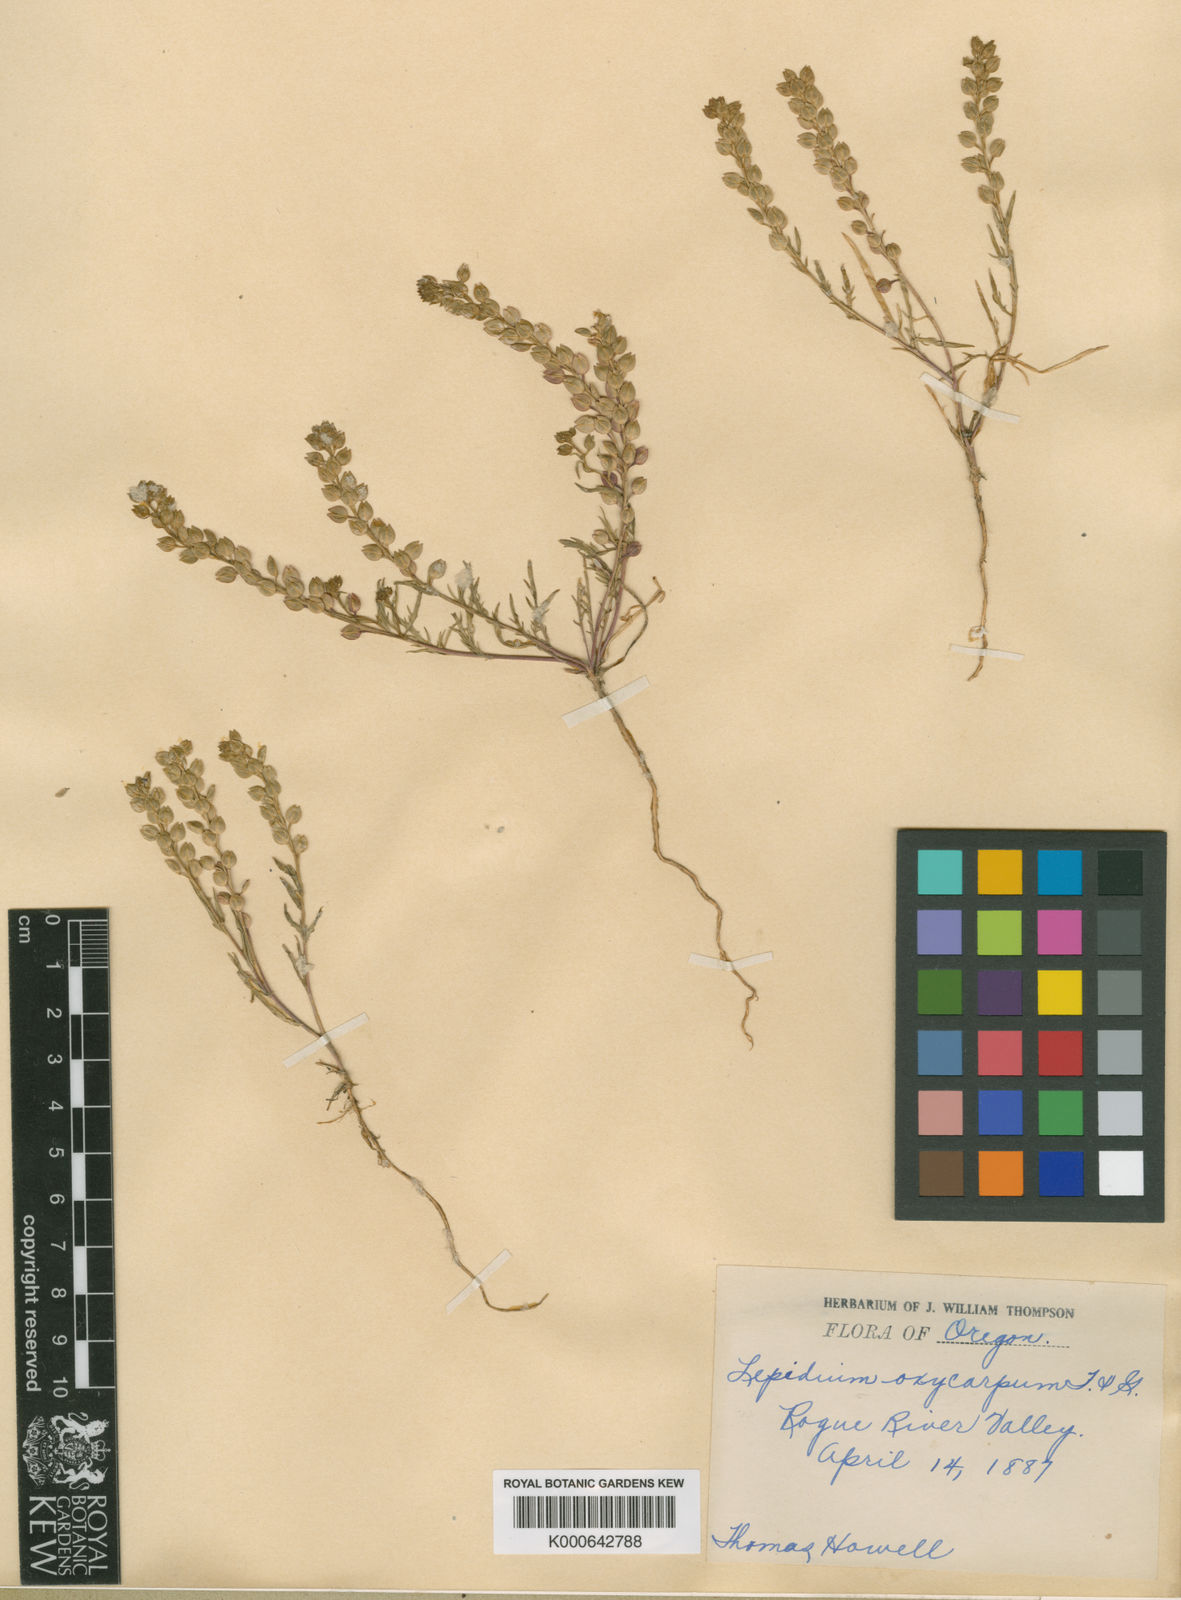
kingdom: Plantae
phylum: Tracheophyta
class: Magnoliopsida
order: Brassicales
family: Brassicaceae
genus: Lepidium
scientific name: Lepidium nitidum
